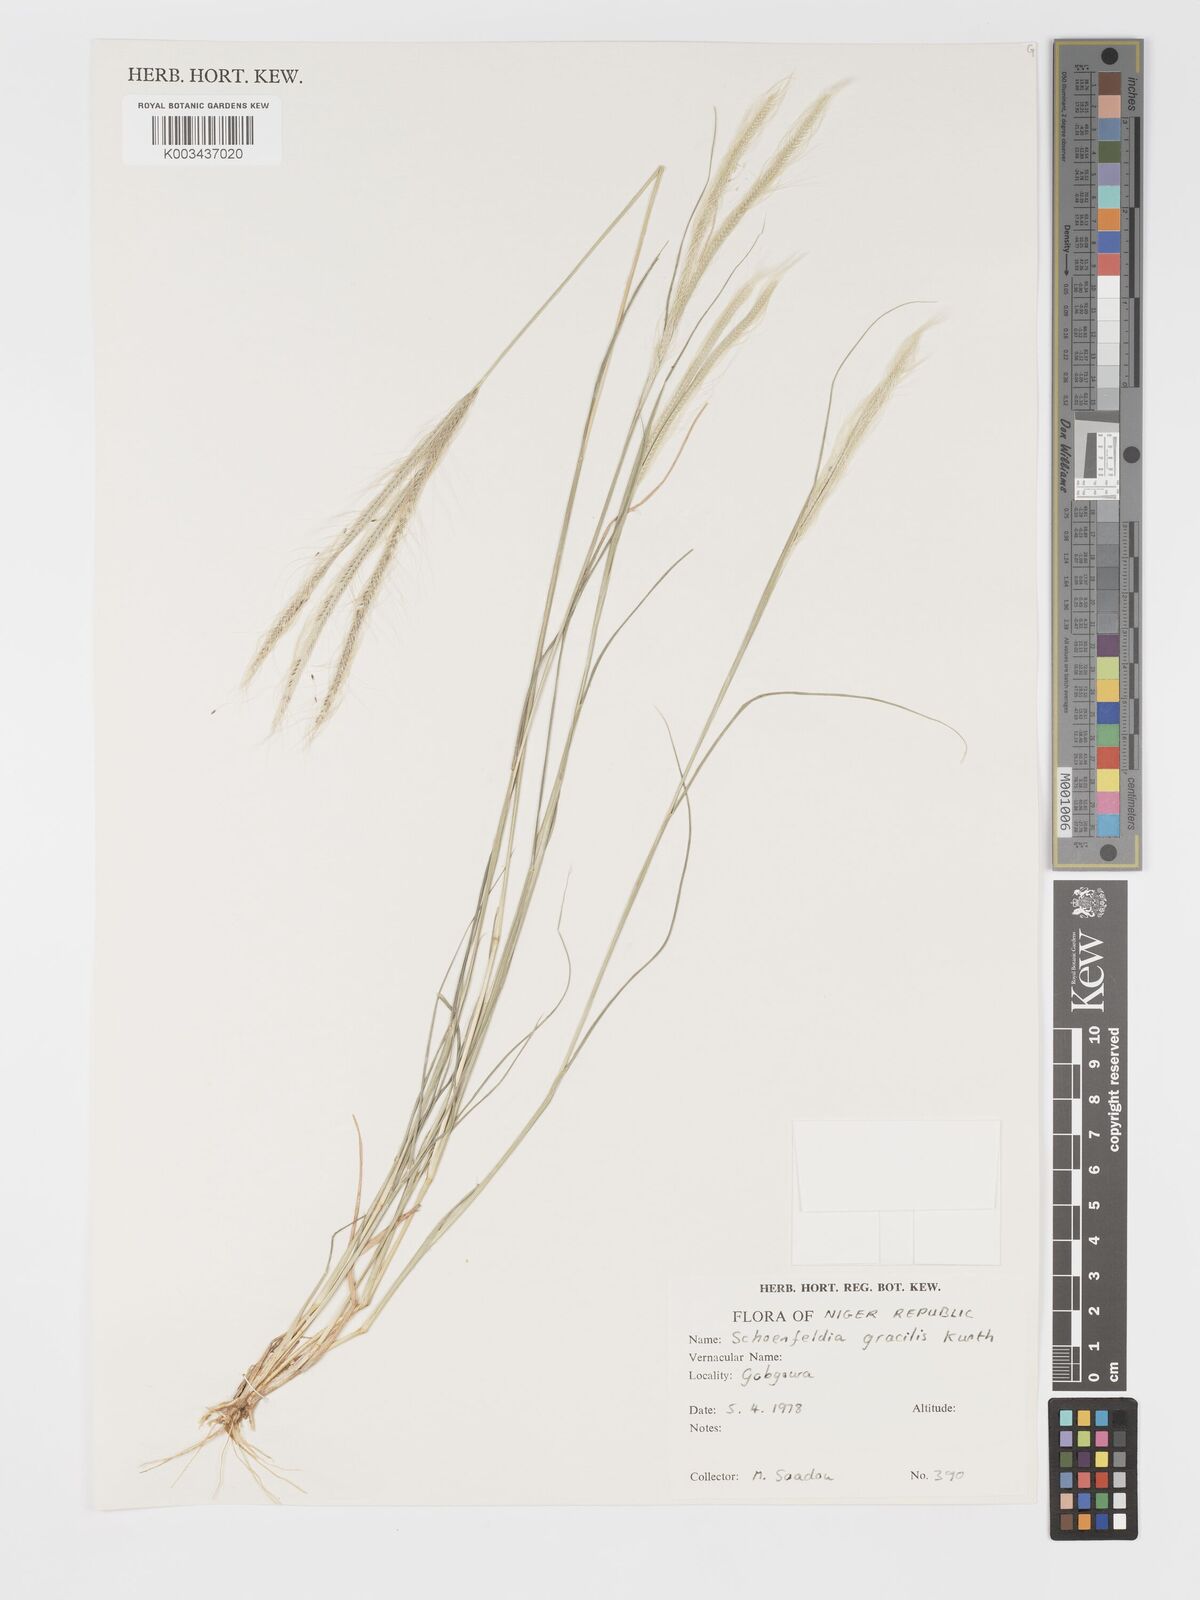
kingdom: Plantae
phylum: Tracheophyta
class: Liliopsida
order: Poales
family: Poaceae
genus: Schoenefeldia
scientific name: Schoenefeldia gracilis
